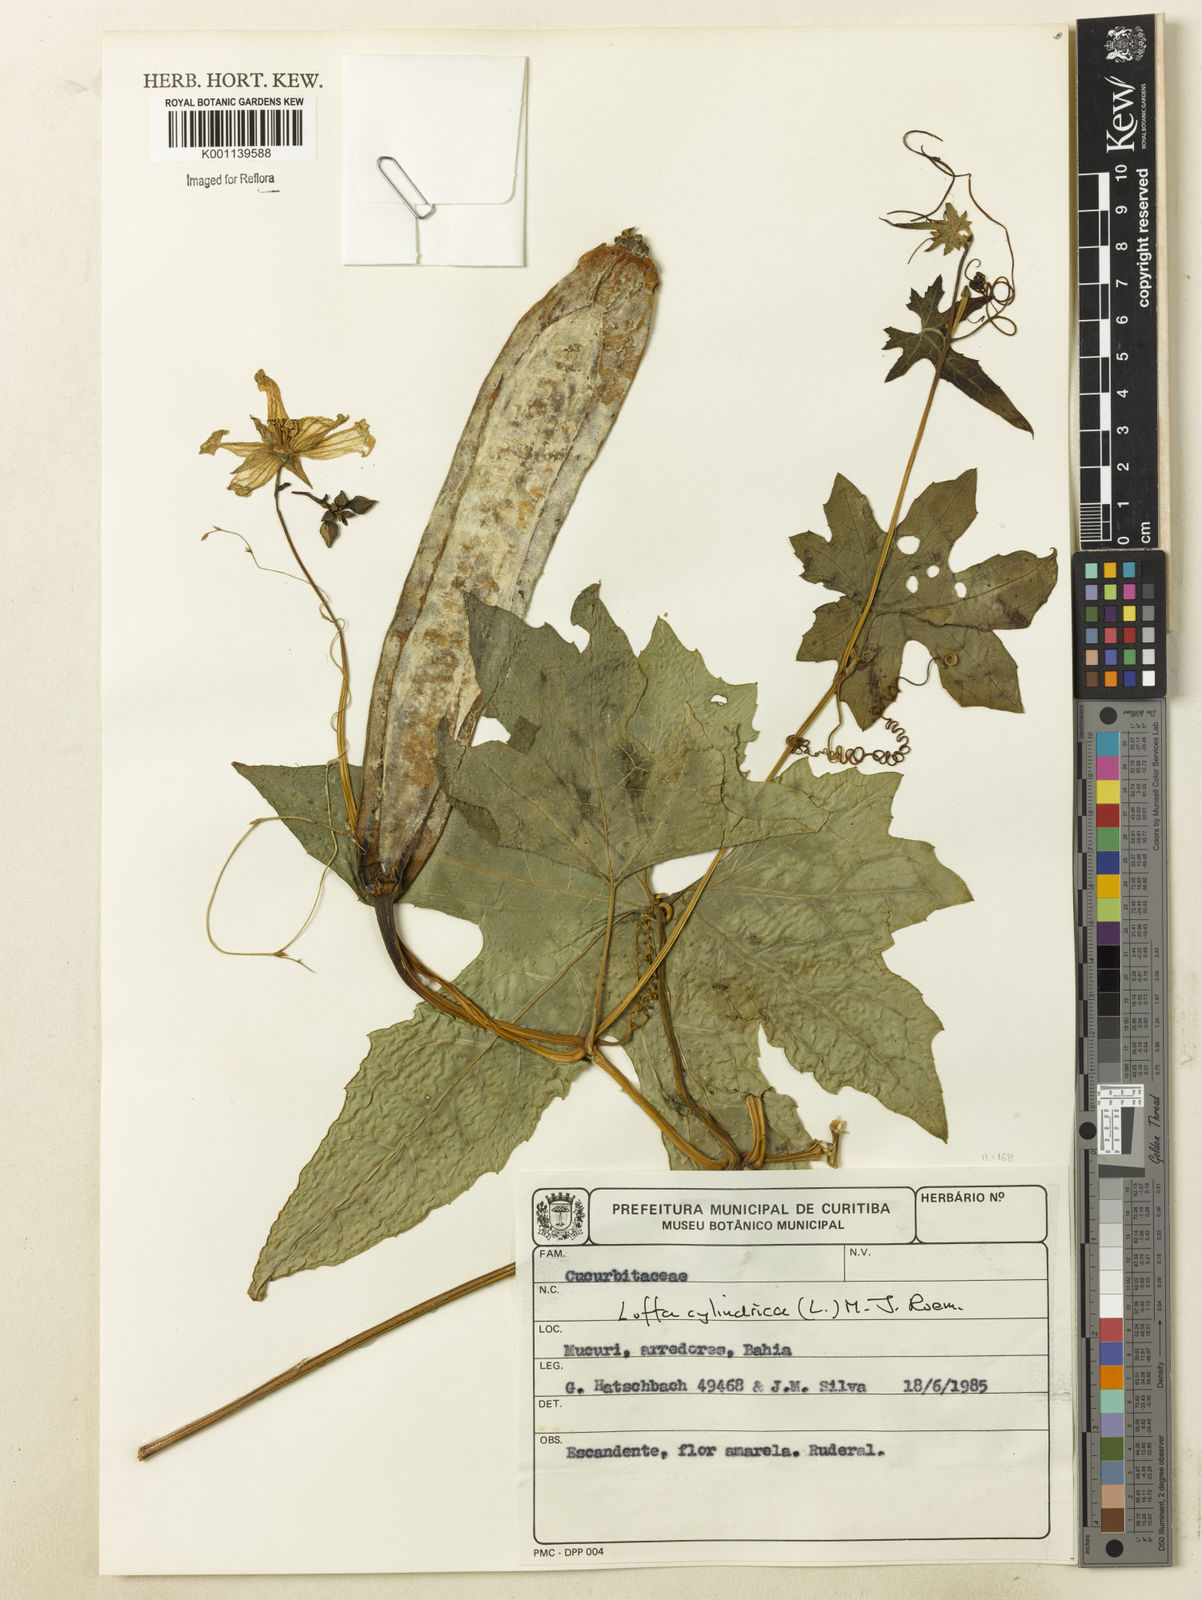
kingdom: Plantae
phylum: Tracheophyta
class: Magnoliopsida
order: Cucurbitales
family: Cucurbitaceae
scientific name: Cucurbitaceae
